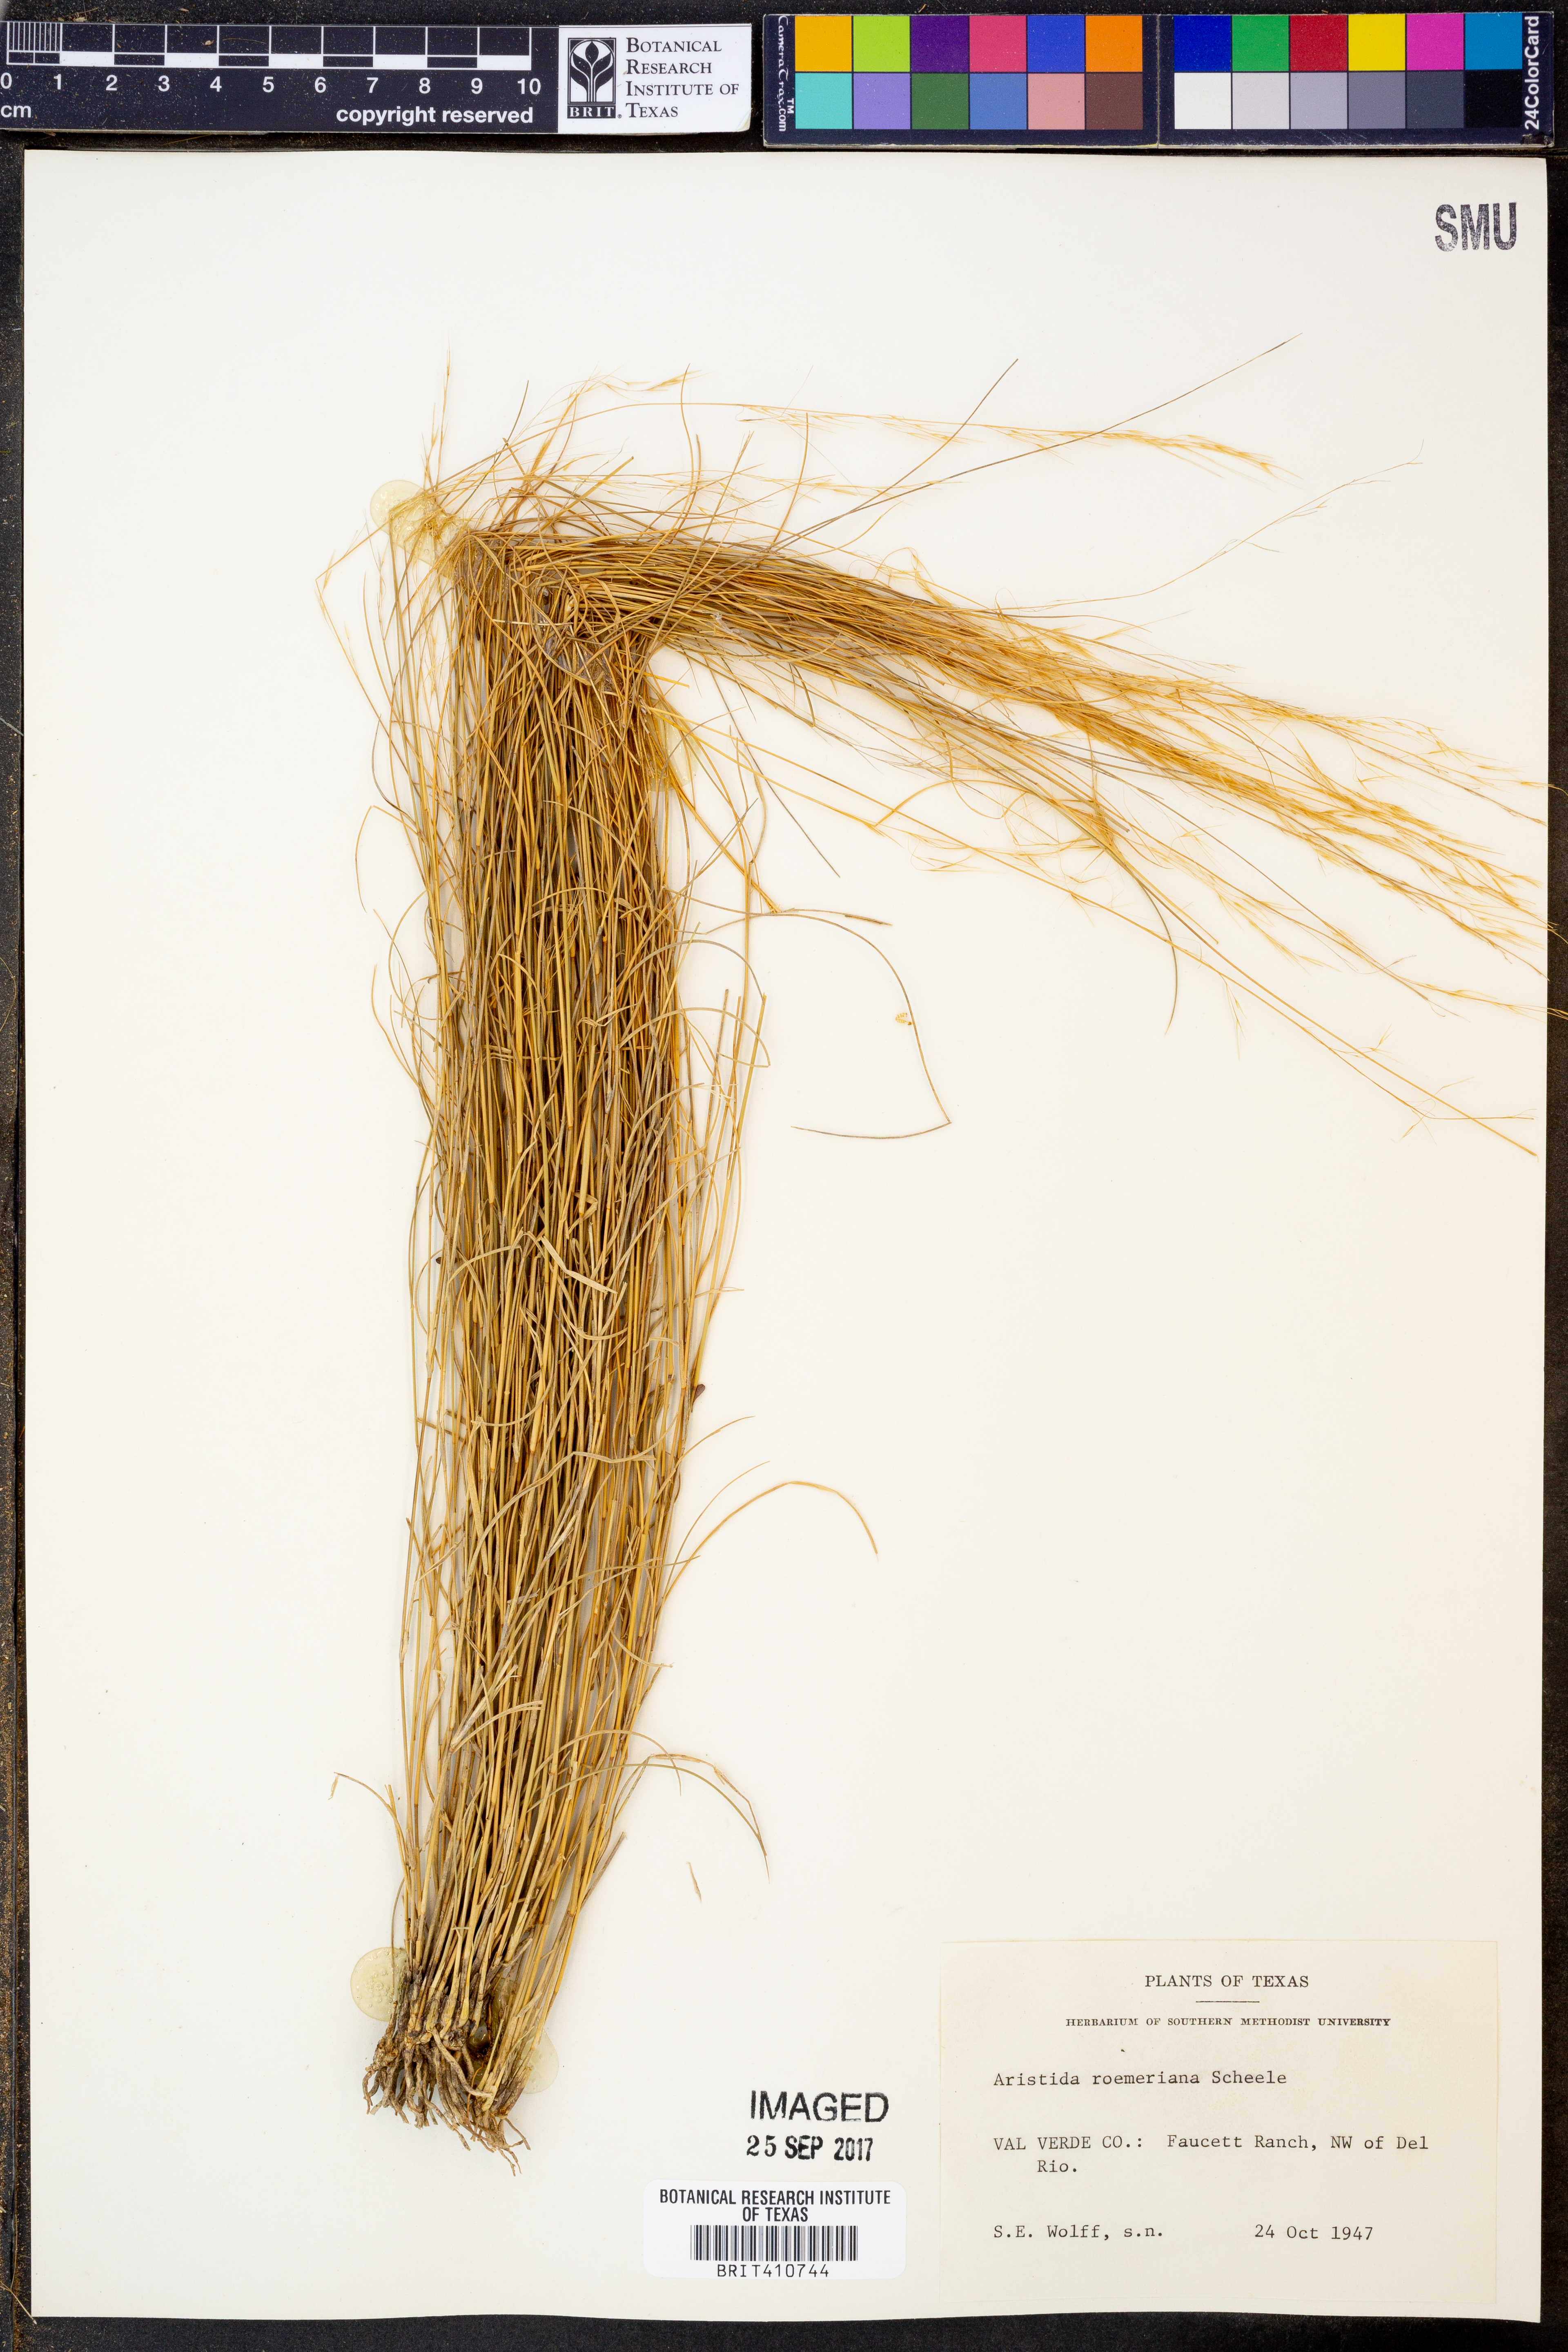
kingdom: Plantae
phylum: Tracheophyta
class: Liliopsida
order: Poales
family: Poaceae
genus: Aristida
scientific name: Aristida purpurea
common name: Purple threeawn
